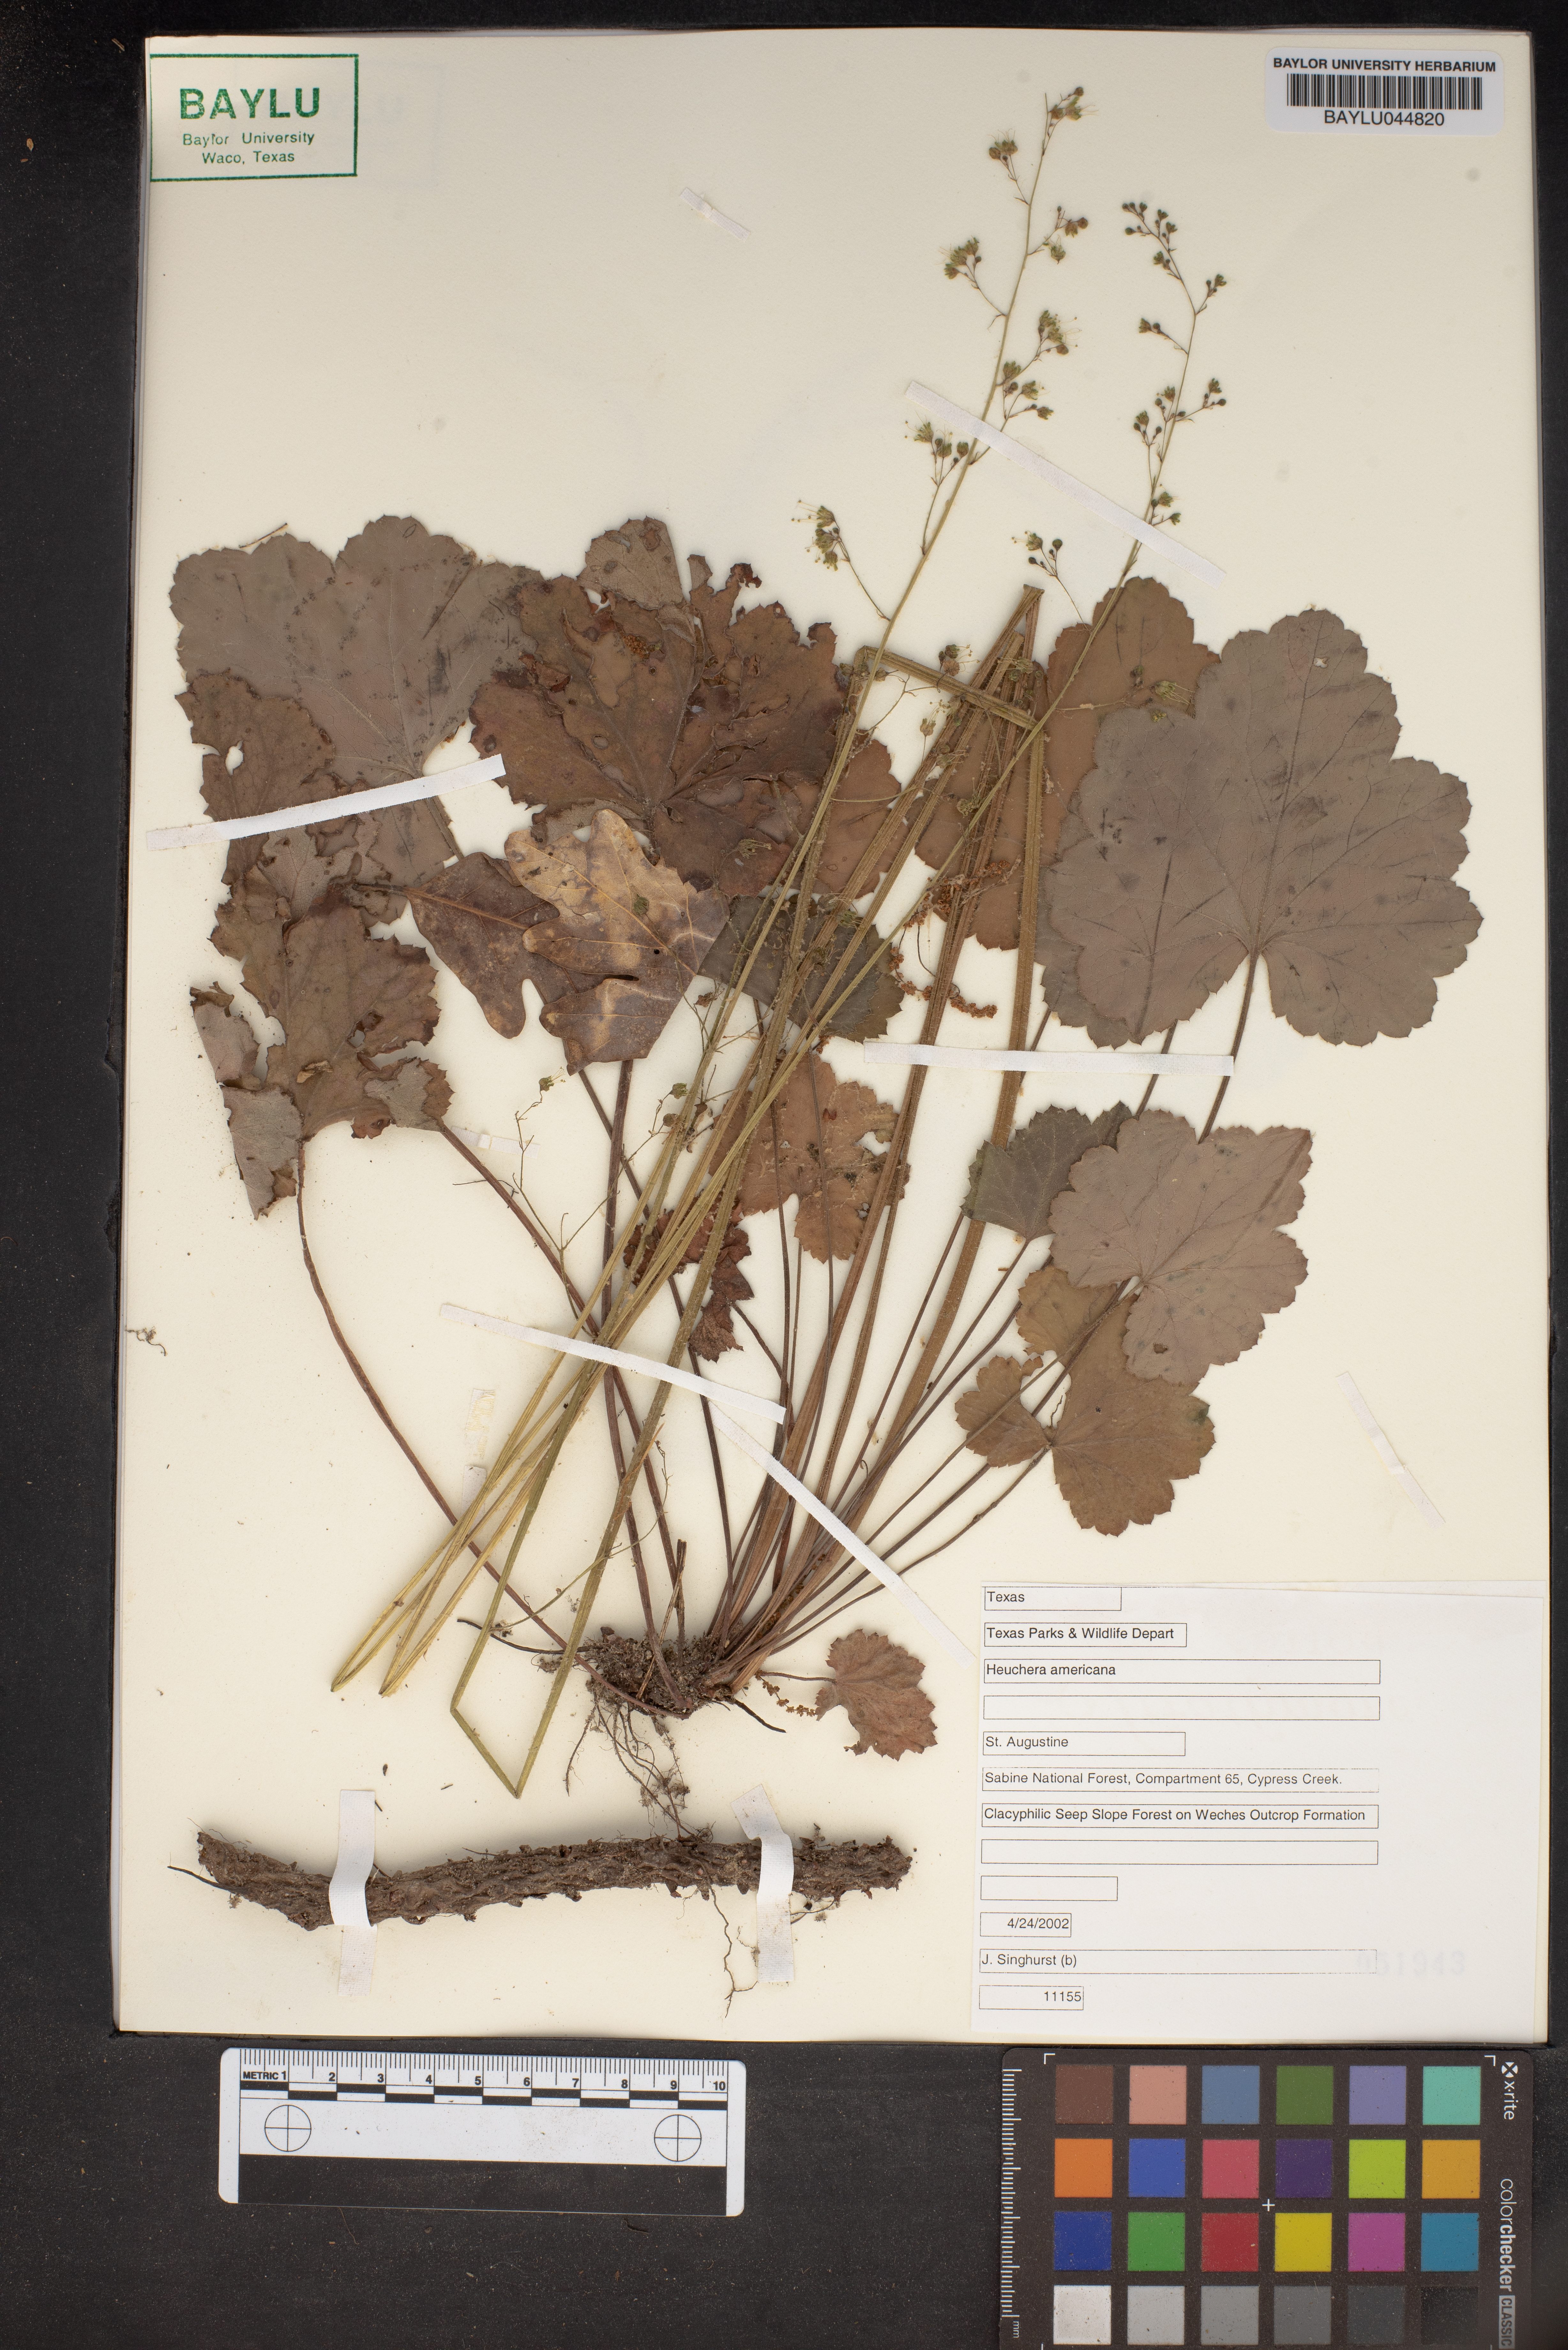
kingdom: Plantae
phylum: Tracheophyta
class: Magnoliopsida
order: Saxifragales
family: Saxifragaceae
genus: Heuchera
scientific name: Heuchera americana
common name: Alumroot
